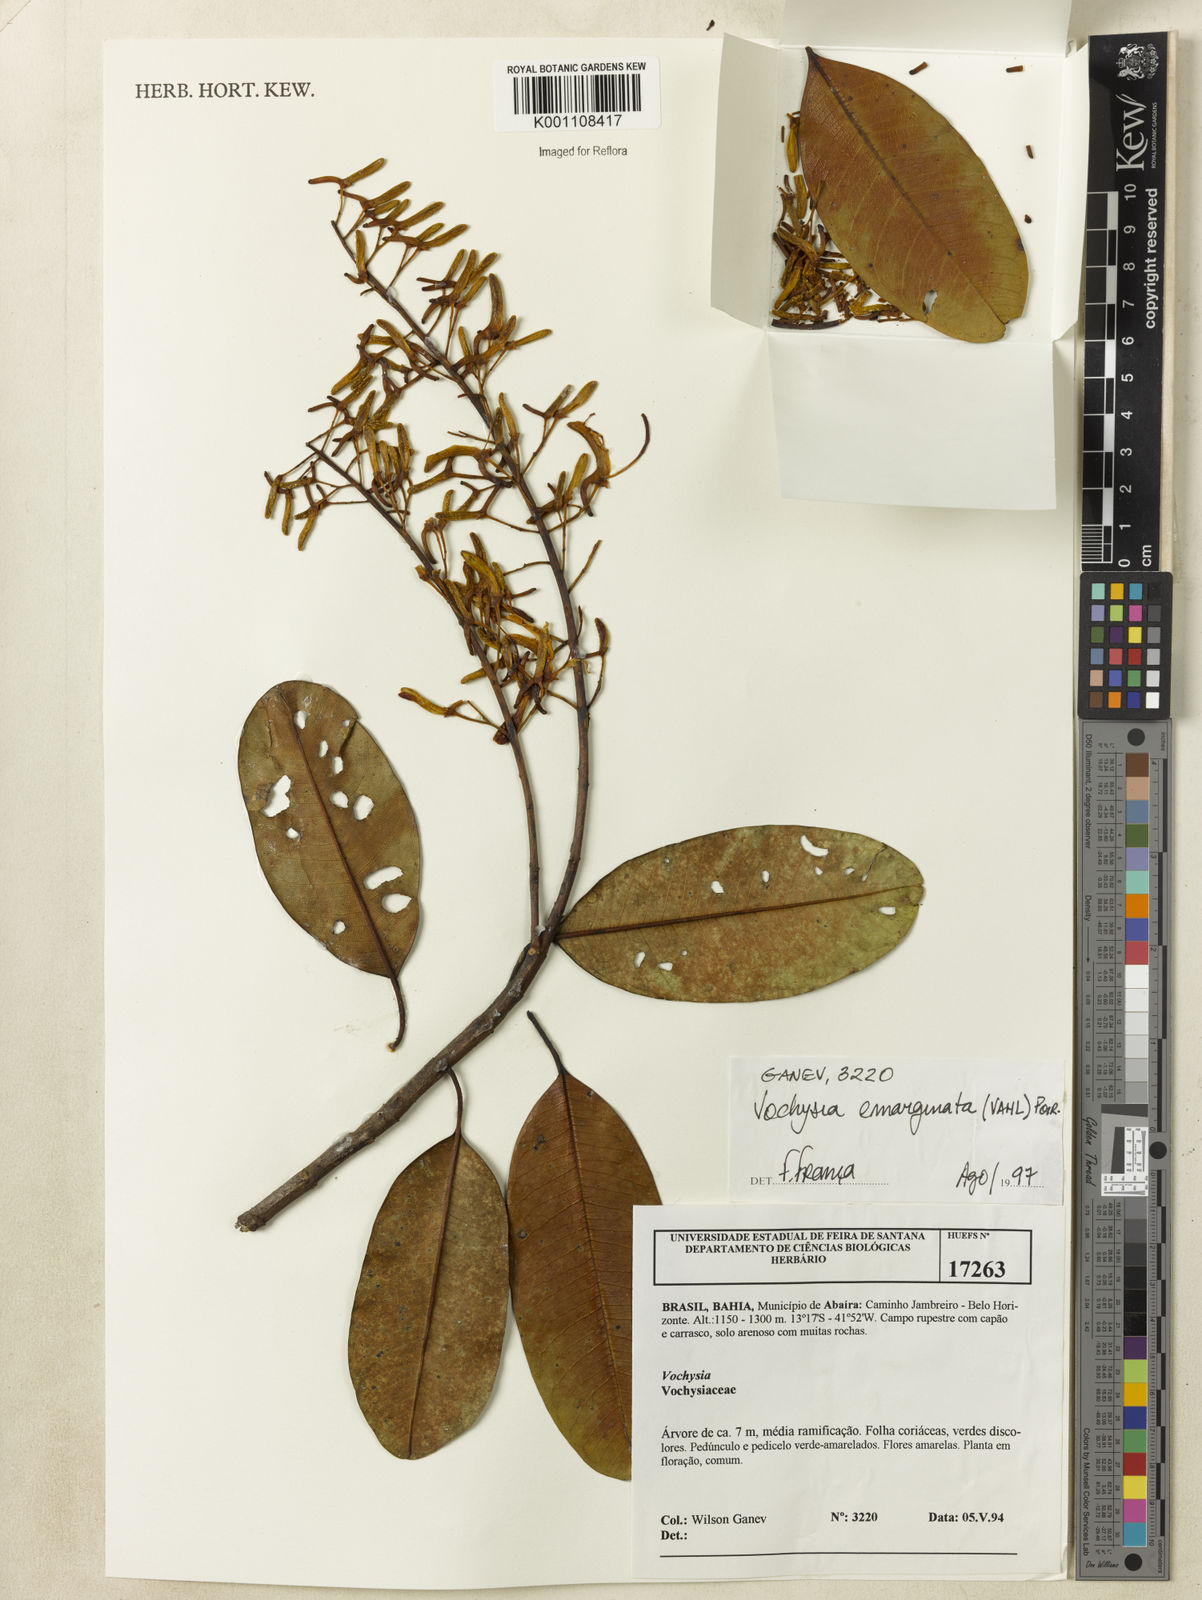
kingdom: Plantae
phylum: Tracheophyta
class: Magnoliopsida
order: Myrtales
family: Vochysiaceae
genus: Vochysia
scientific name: Vochysia
